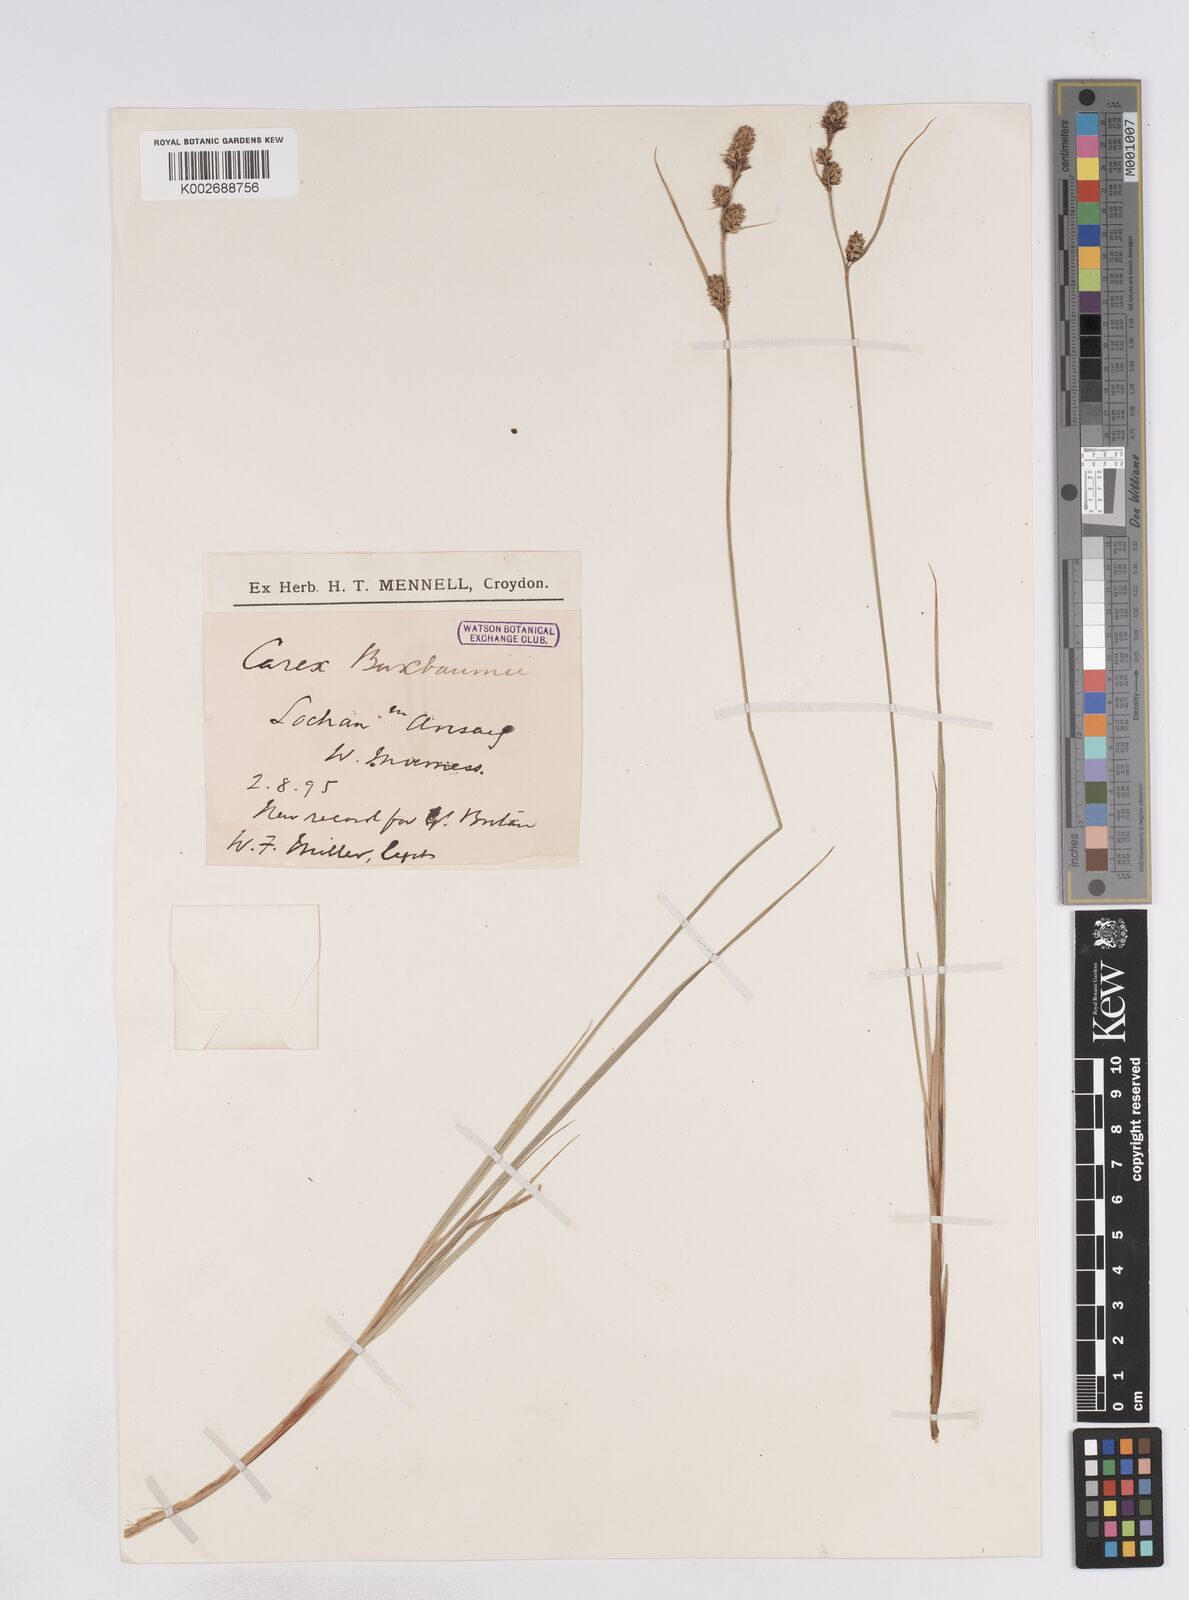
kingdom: Plantae
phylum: Tracheophyta
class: Liliopsida
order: Poales
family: Cyperaceae
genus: Carex
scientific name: Carex buxbaumii
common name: Club sedge
